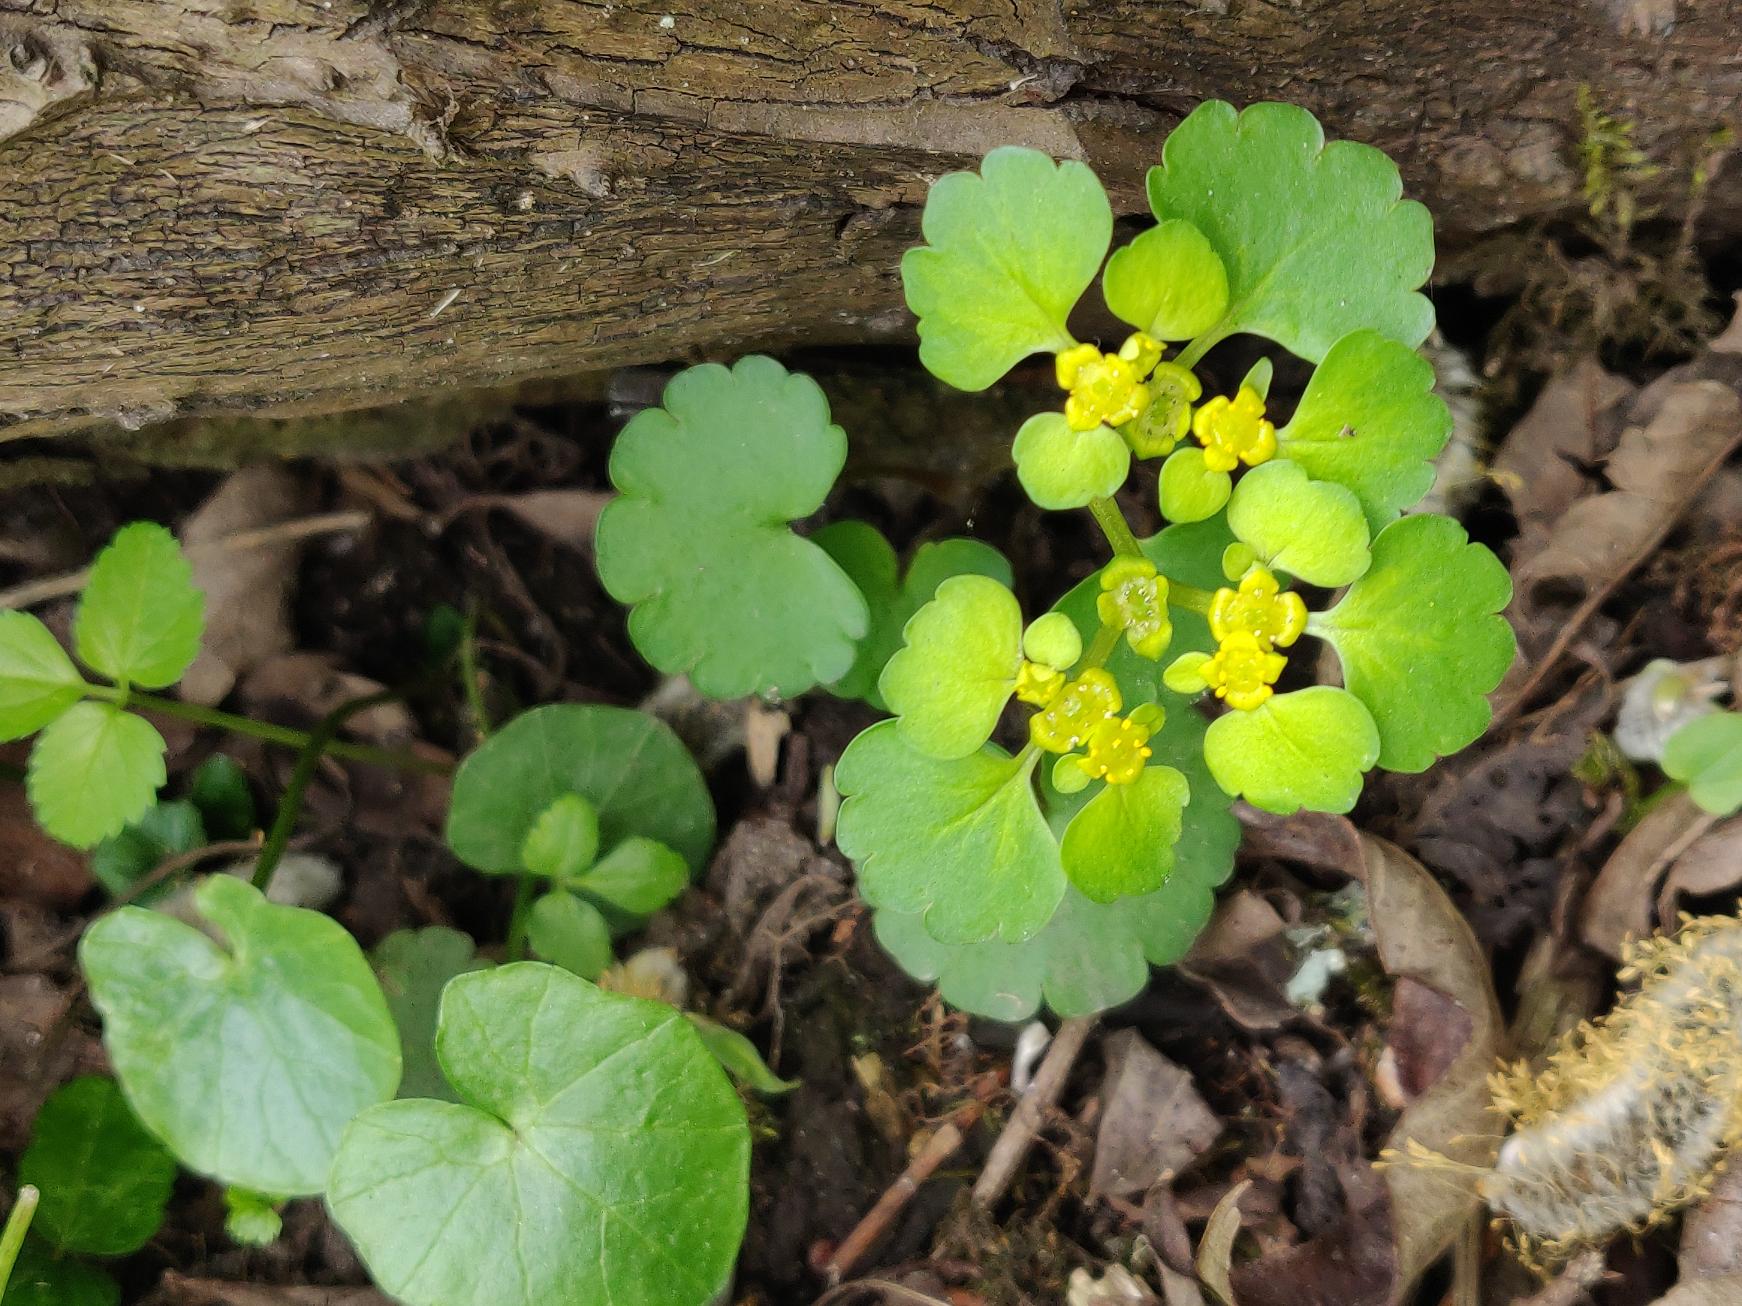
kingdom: Plantae
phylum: Tracheophyta
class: Magnoliopsida
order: Saxifragales
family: Saxifragaceae
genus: Chrysosplenium
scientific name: Chrysosplenium alternifolium
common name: Almindelig milturt
